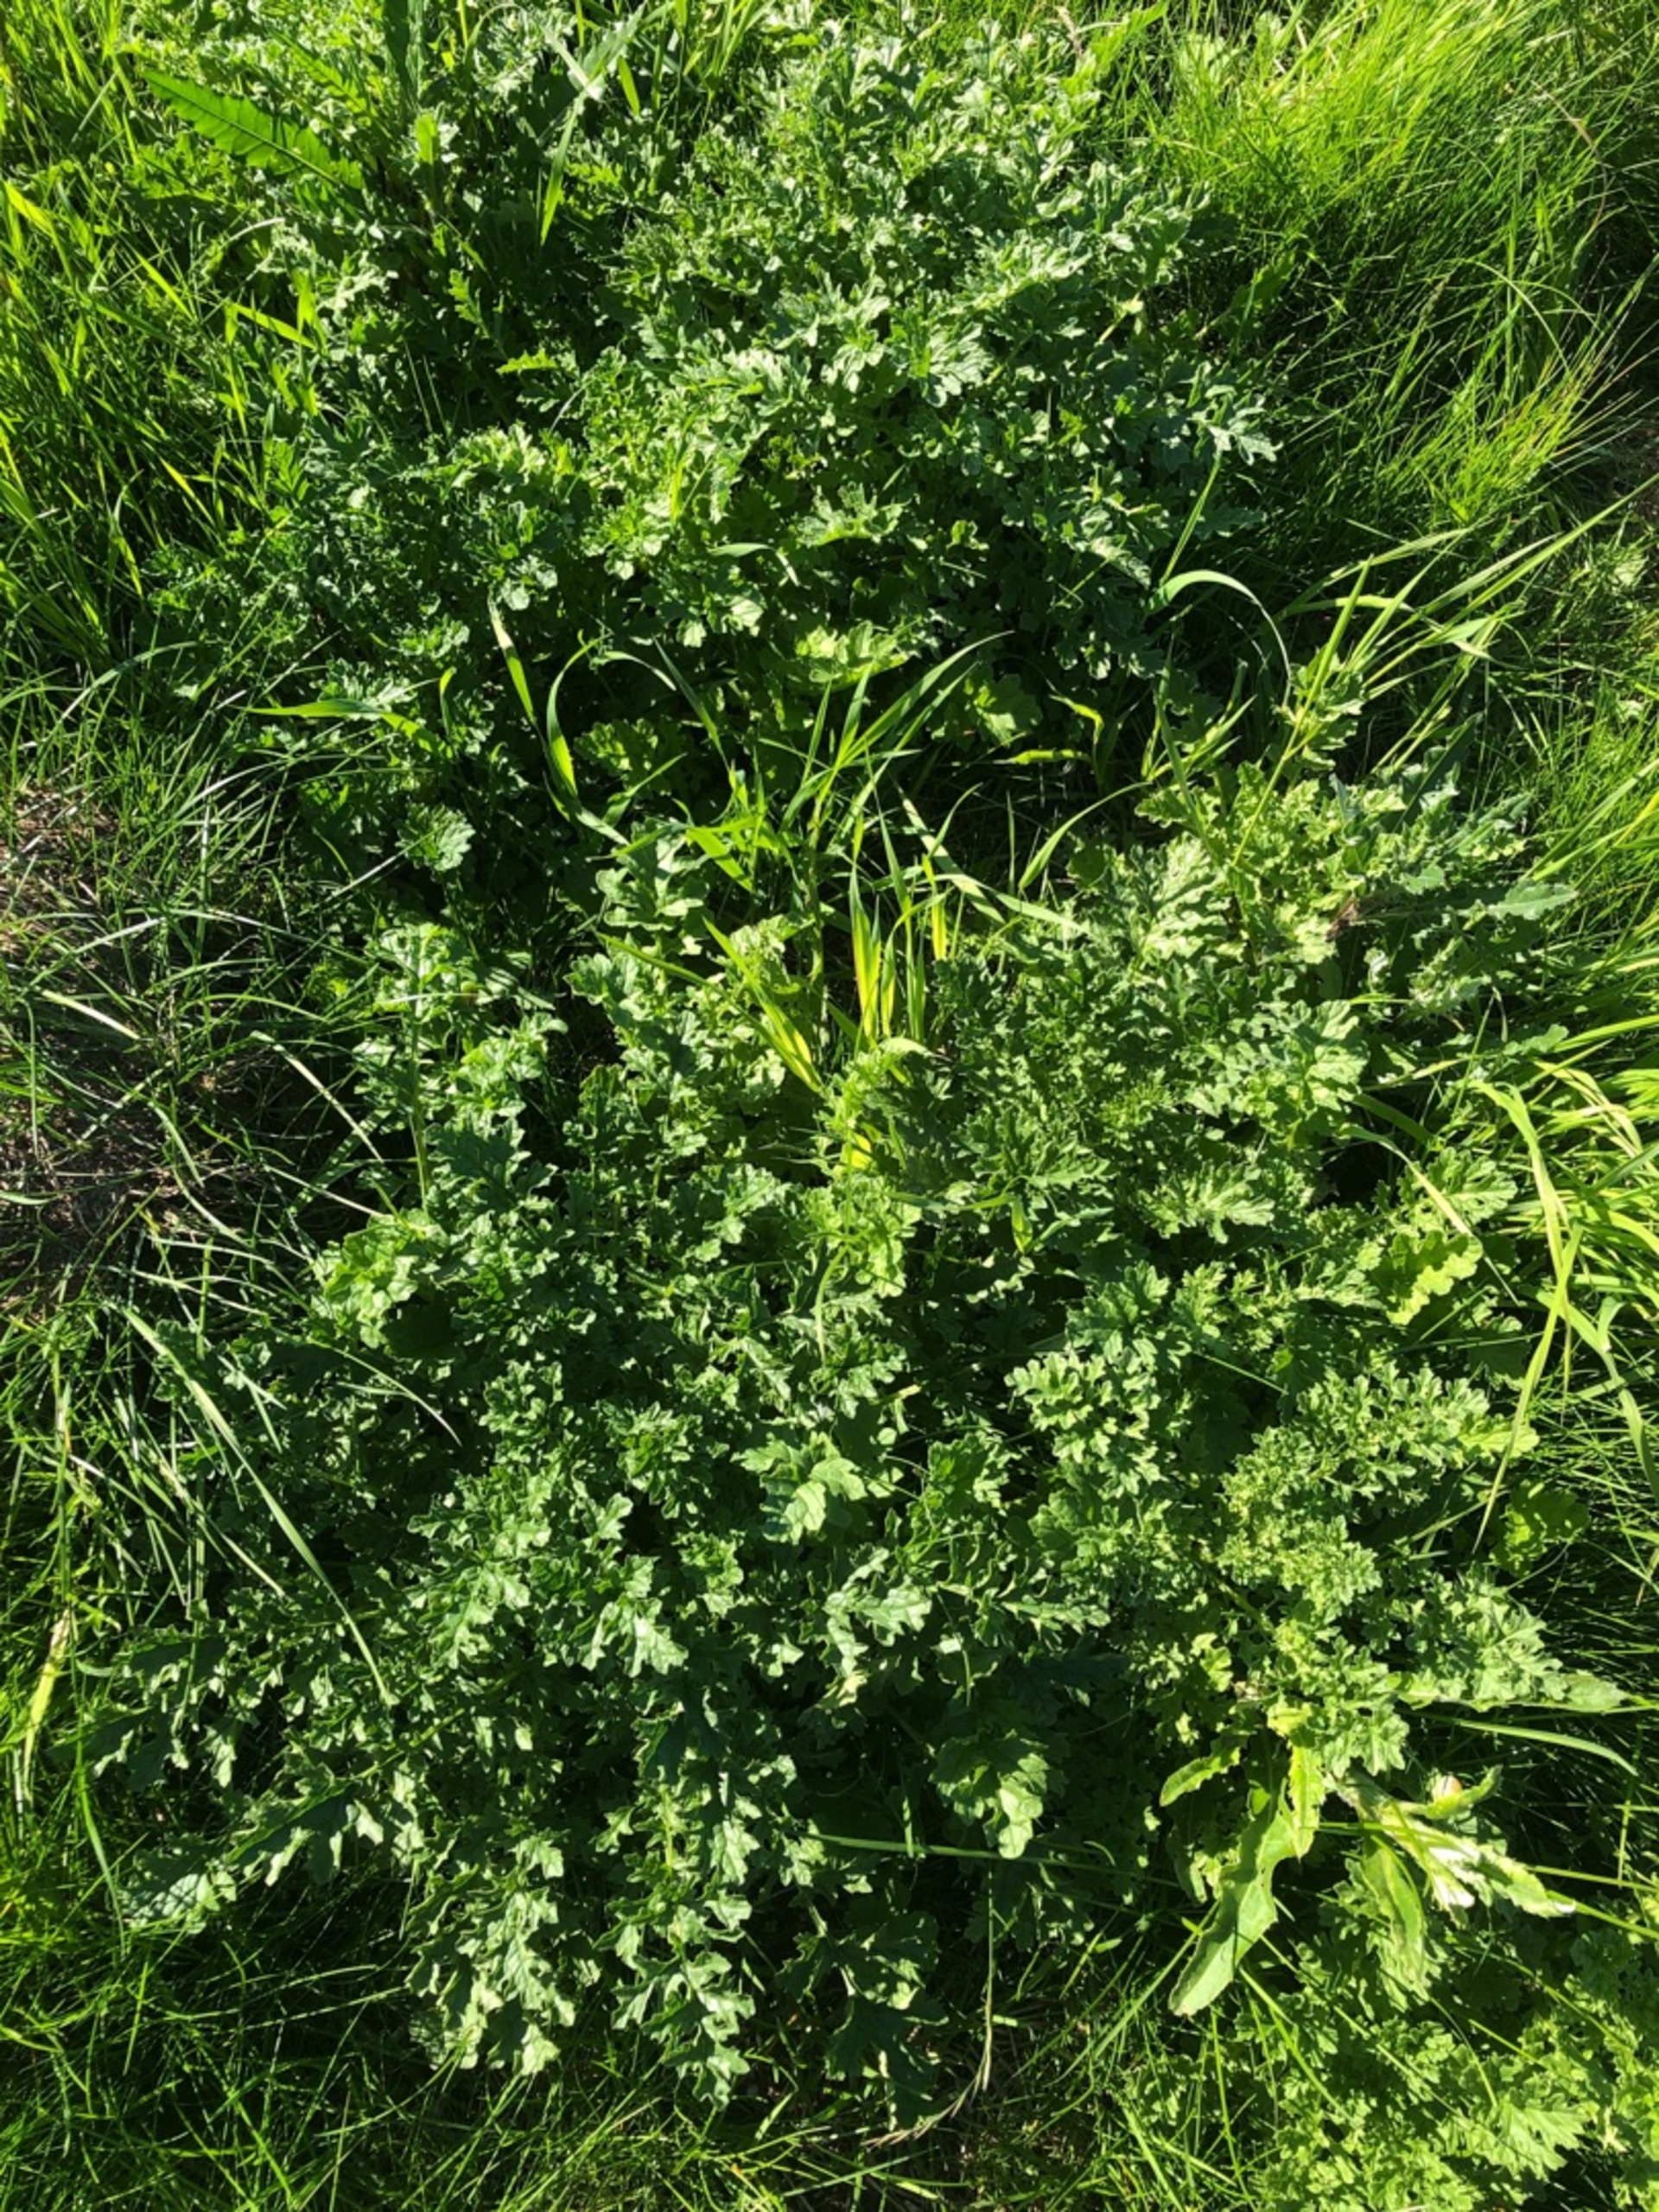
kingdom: Plantae
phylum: Tracheophyta
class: Magnoliopsida
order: Asterales
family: Asteraceae
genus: Jacobaea
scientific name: Jacobaea vulgaris
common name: Eng-brandbæger
